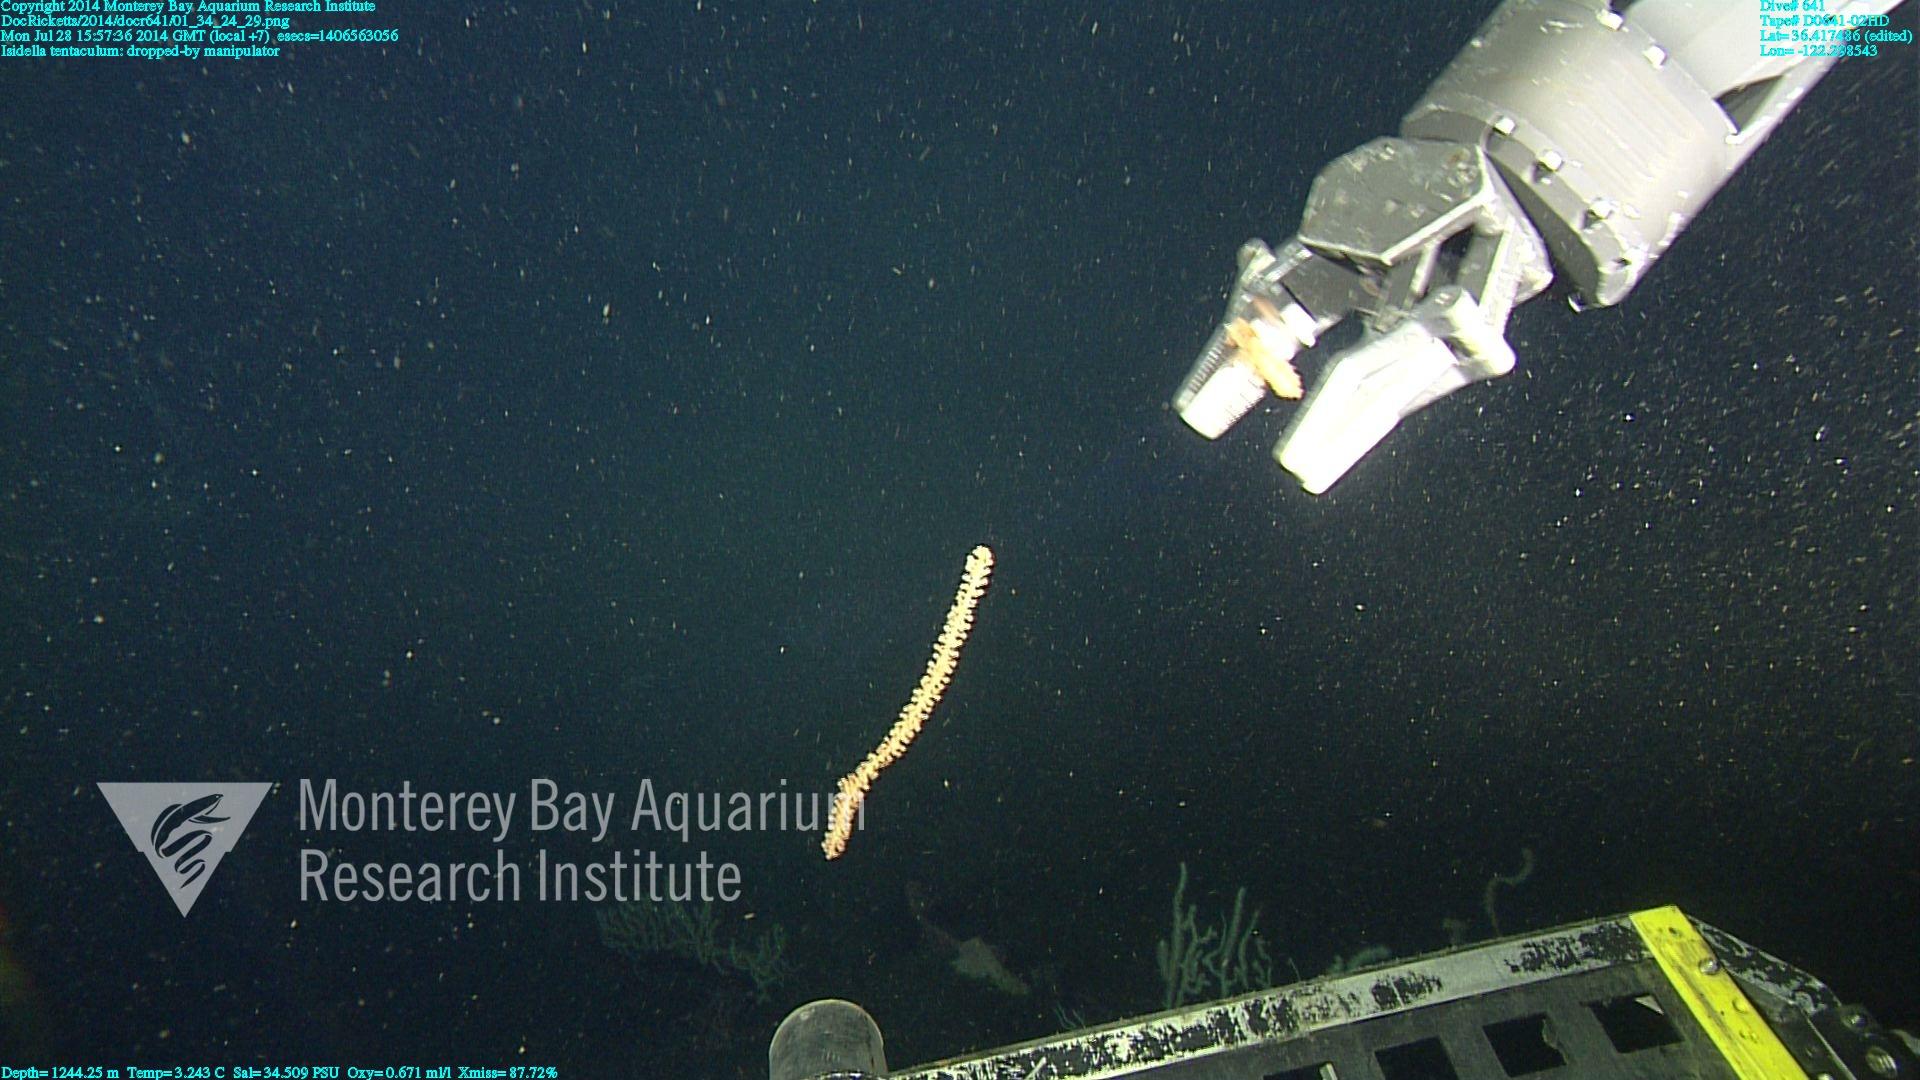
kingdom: Animalia
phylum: Cnidaria
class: Anthozoa
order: Scleralcyonacea
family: Keratoisididae
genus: Isidella
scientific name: Isidella tentaculum
